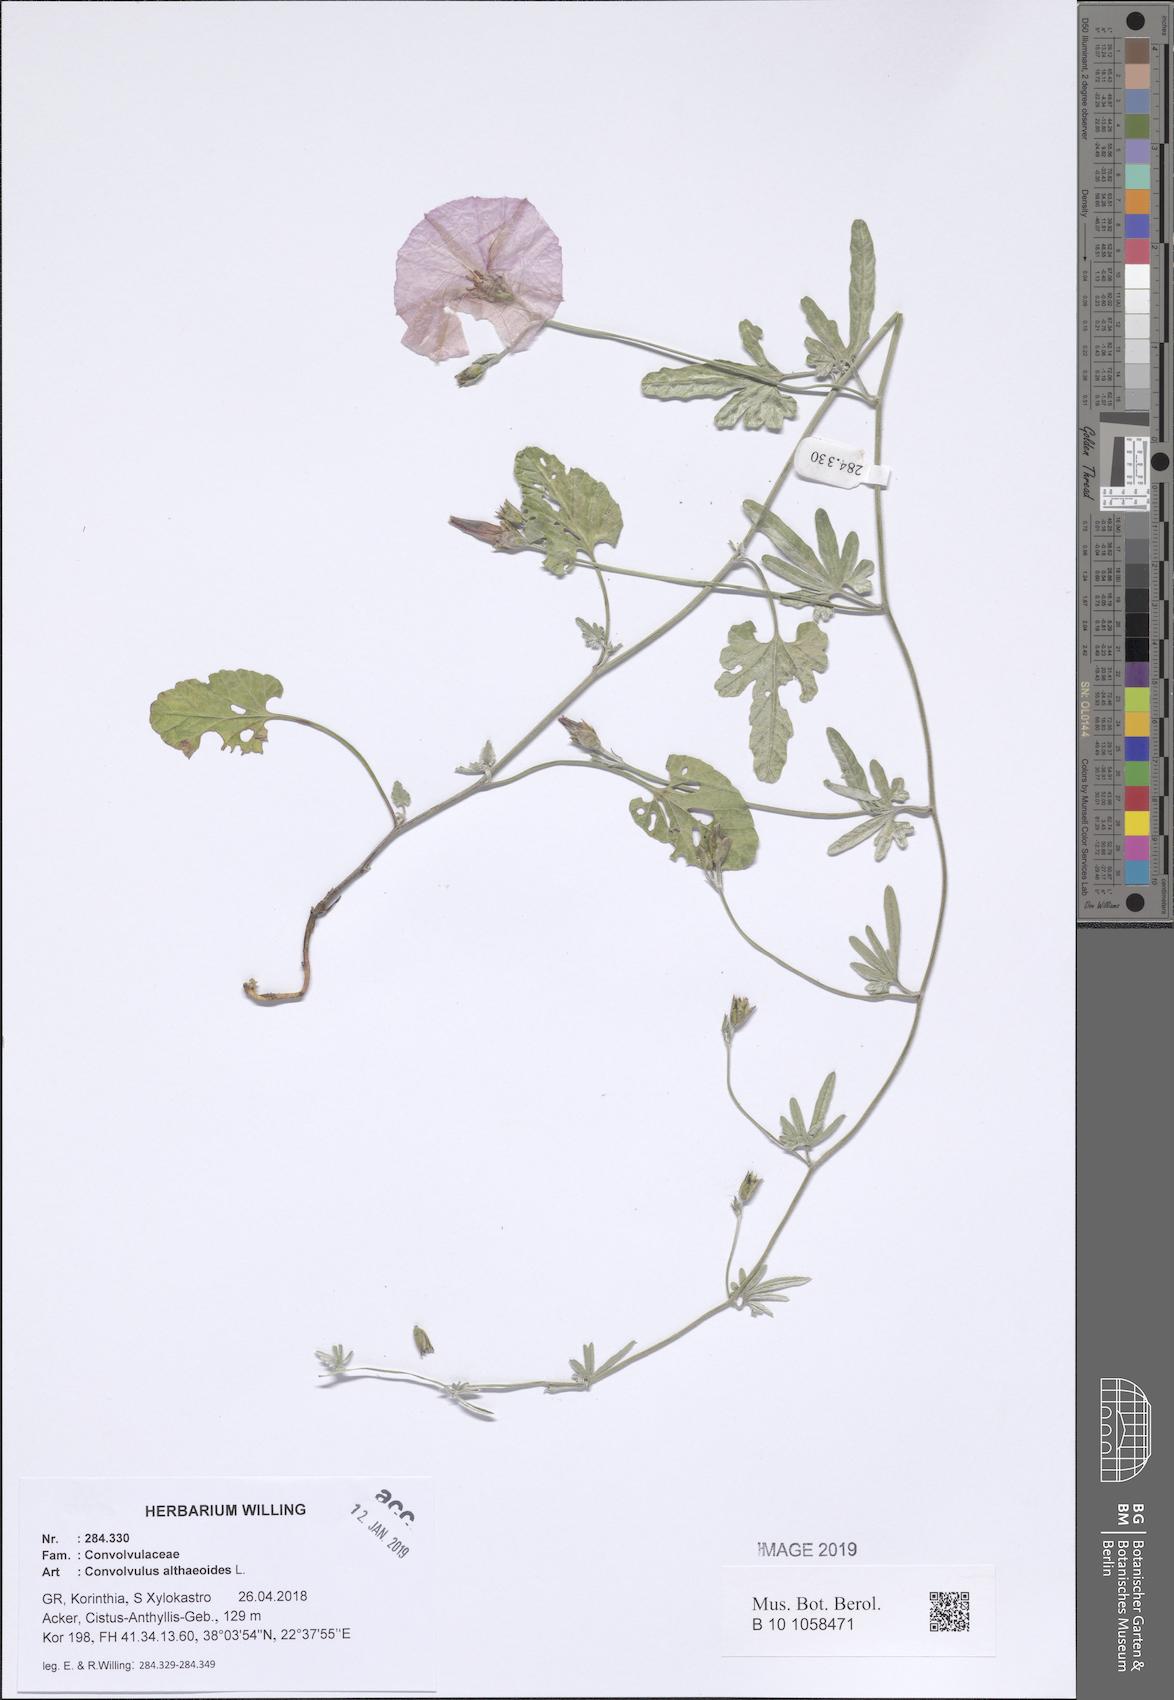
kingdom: Plantae
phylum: Tracheophyta
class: Magnoliopsida
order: Solanales
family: Convolvulaceae
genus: Convolvulus
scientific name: Convolvulus althaeoides
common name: Mallow bindweed
